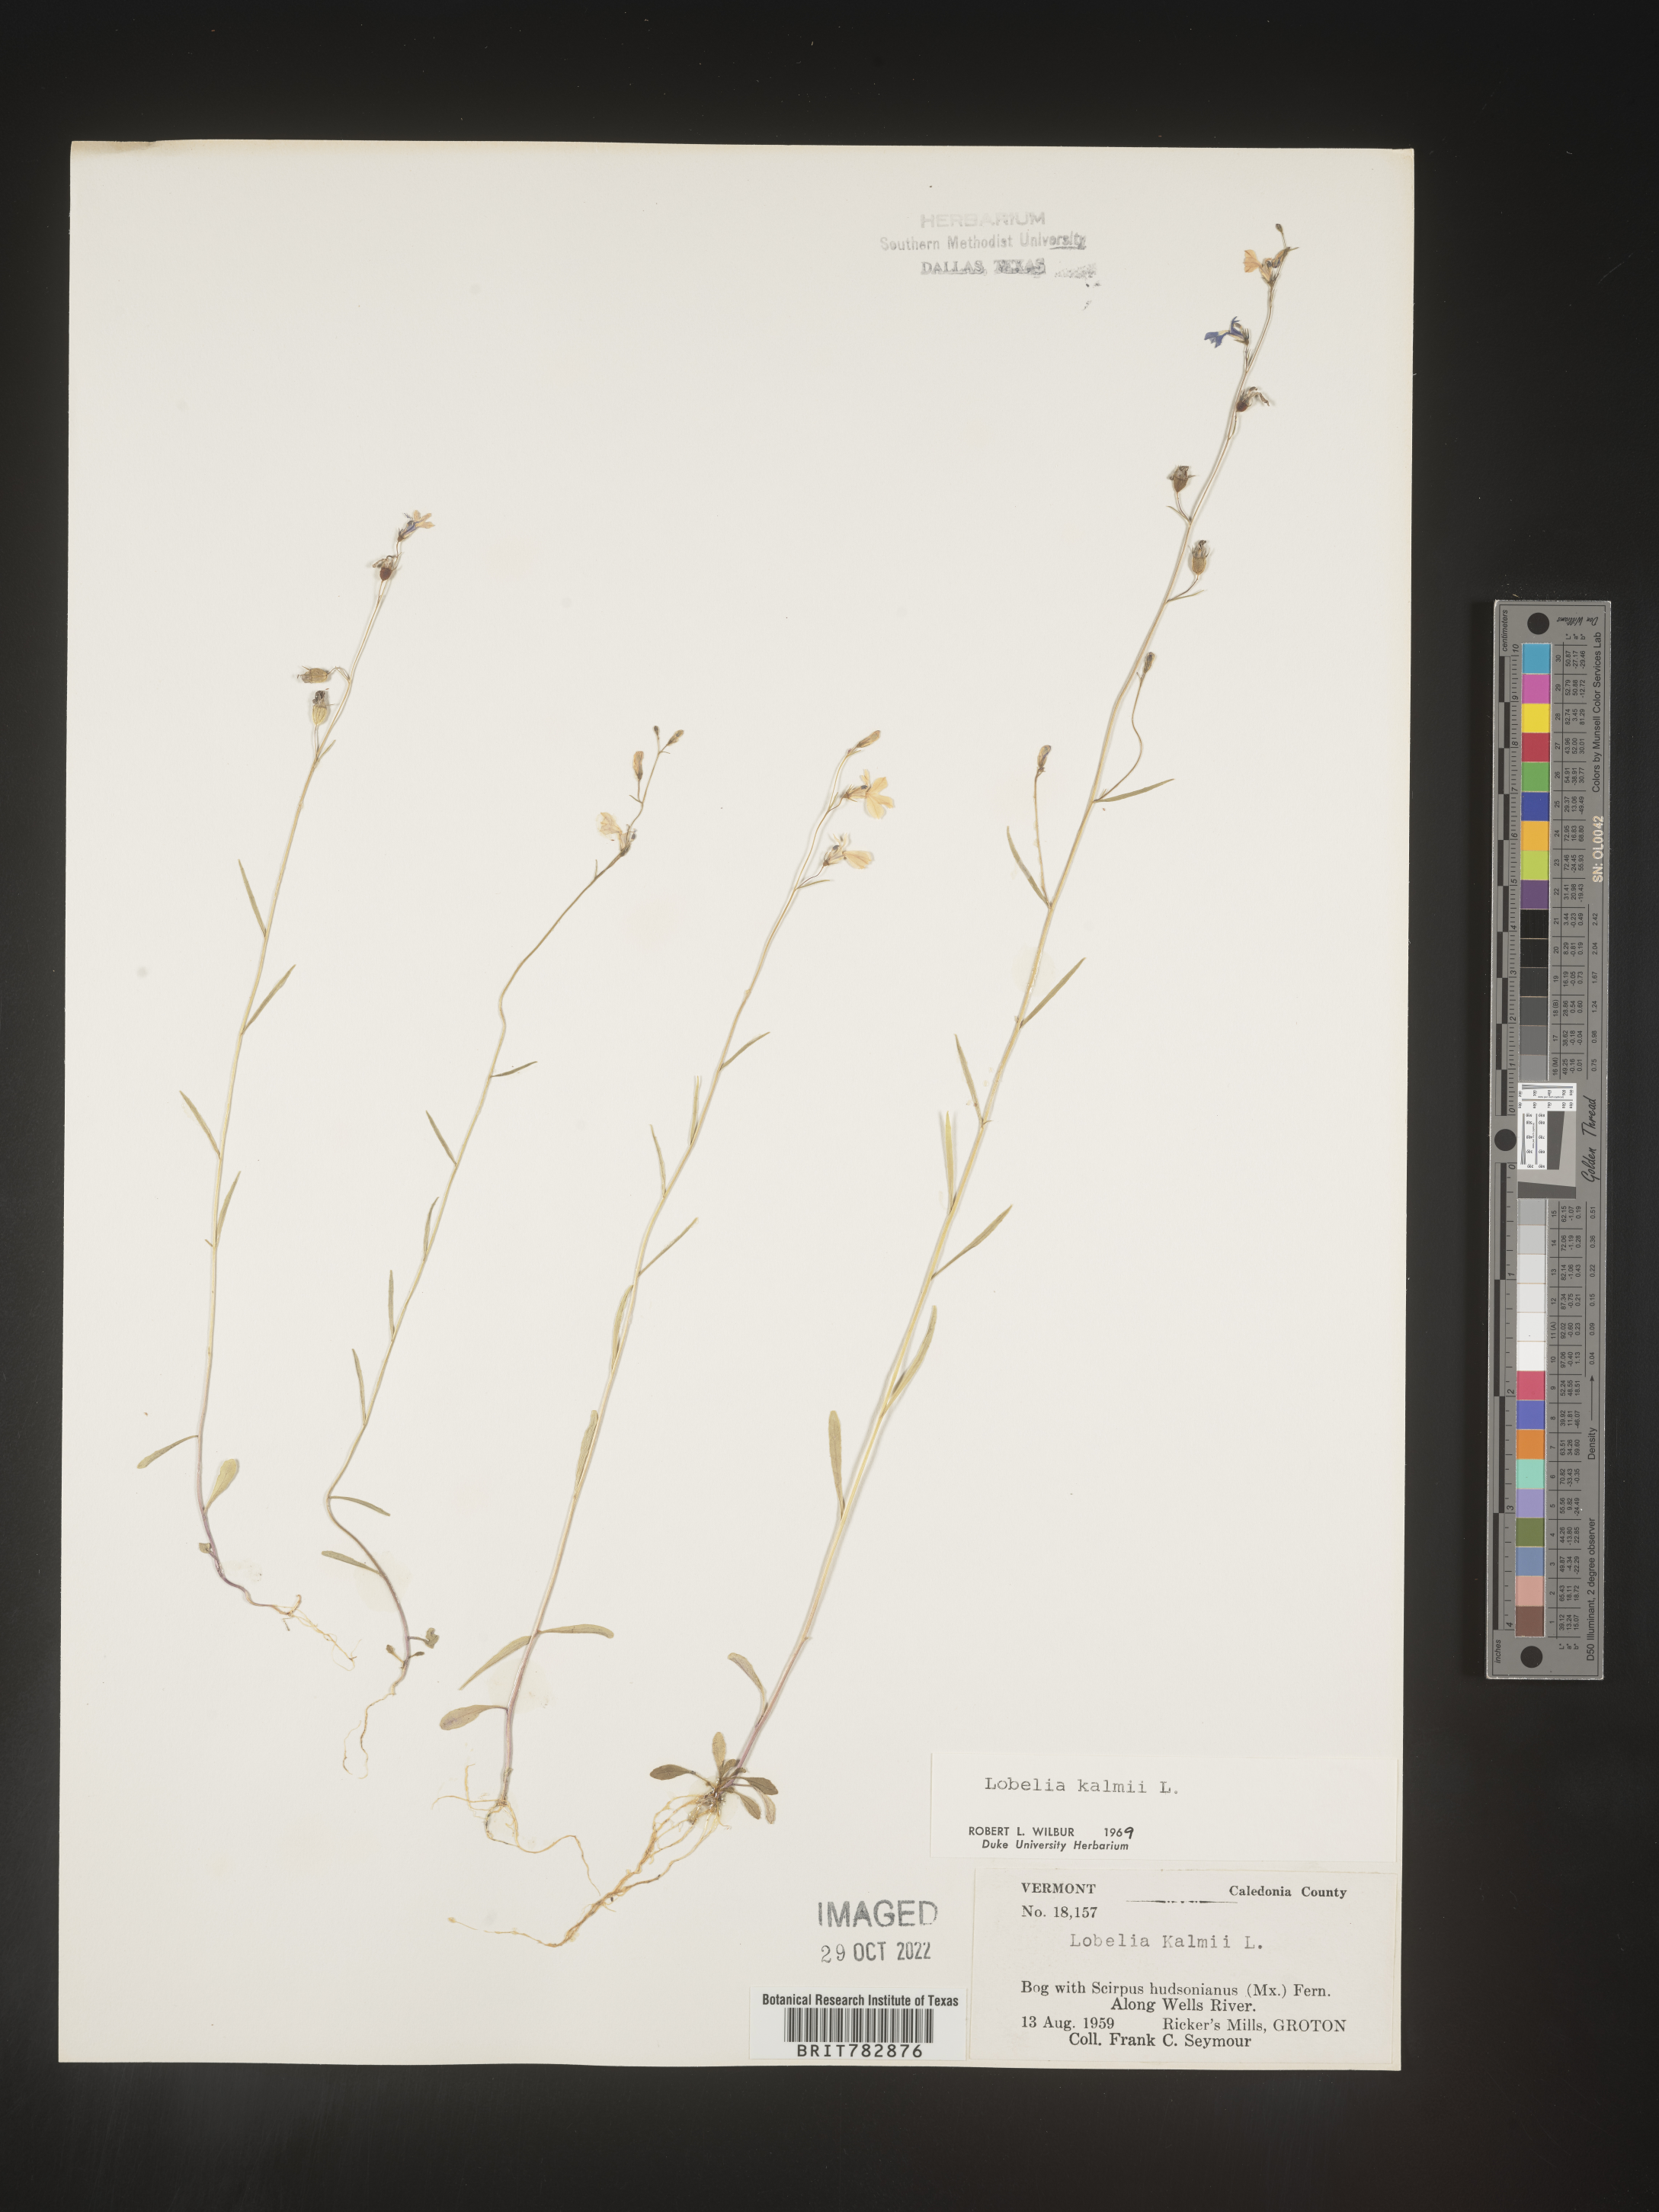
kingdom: Plantae
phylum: Tracheophyta
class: Magnoliopsida
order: Asterales
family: Campanulaceae
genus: Lobelia
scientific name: Lobelia
